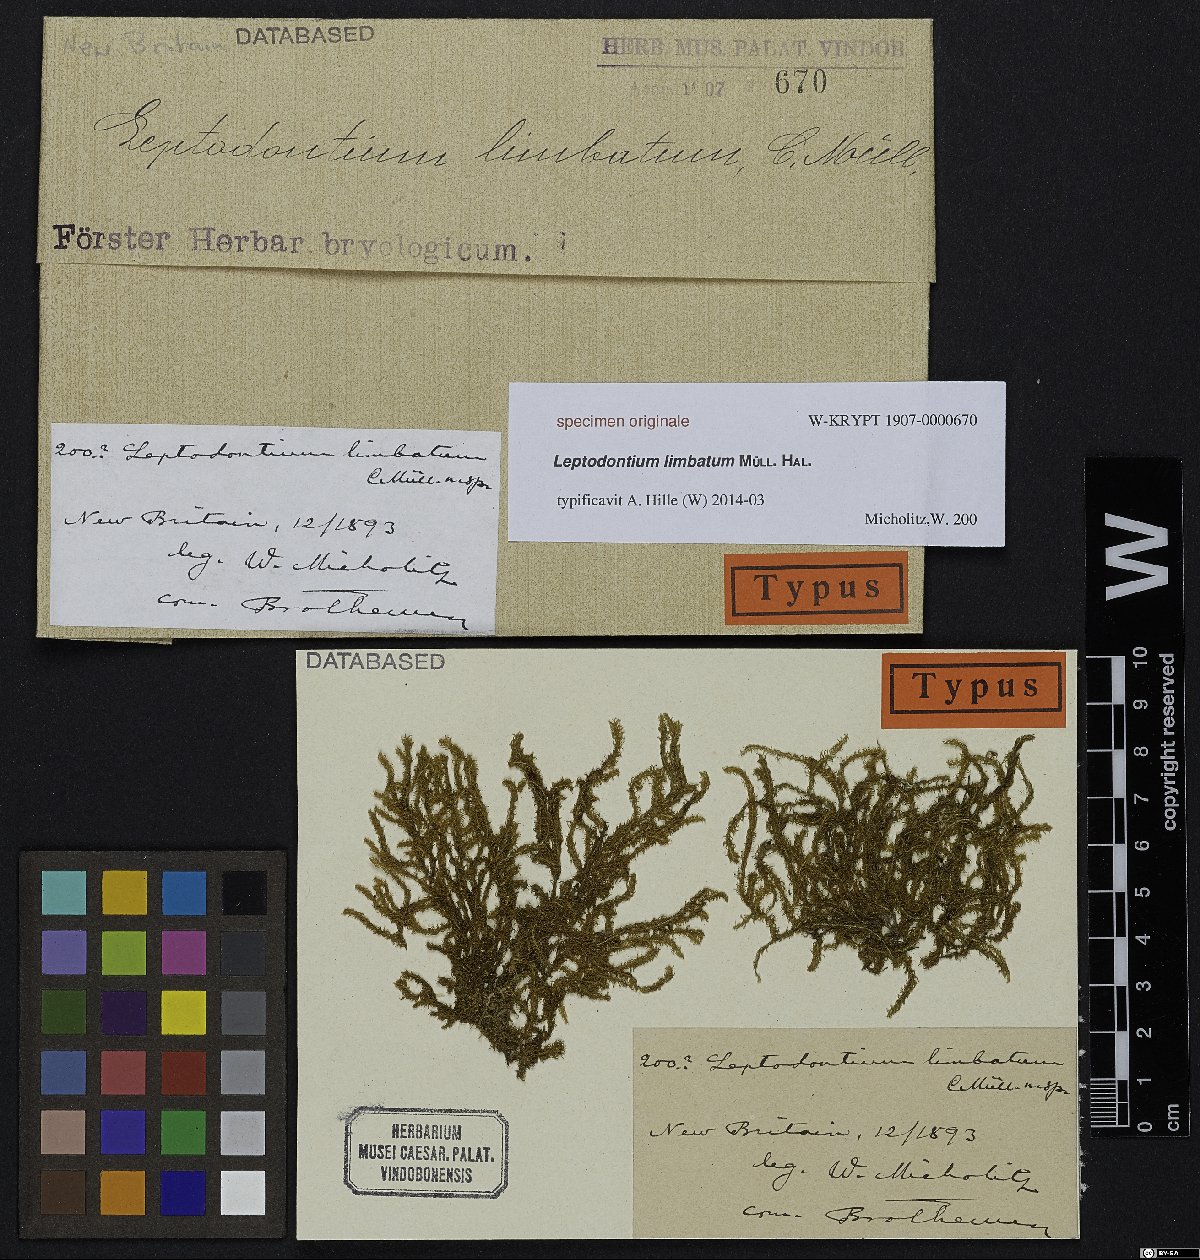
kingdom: Plantae
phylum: Bryophyta
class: Bryopsida
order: Pottiales
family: Pottiaceae
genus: Leptodontium
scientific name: Leptodontium flexifolium
